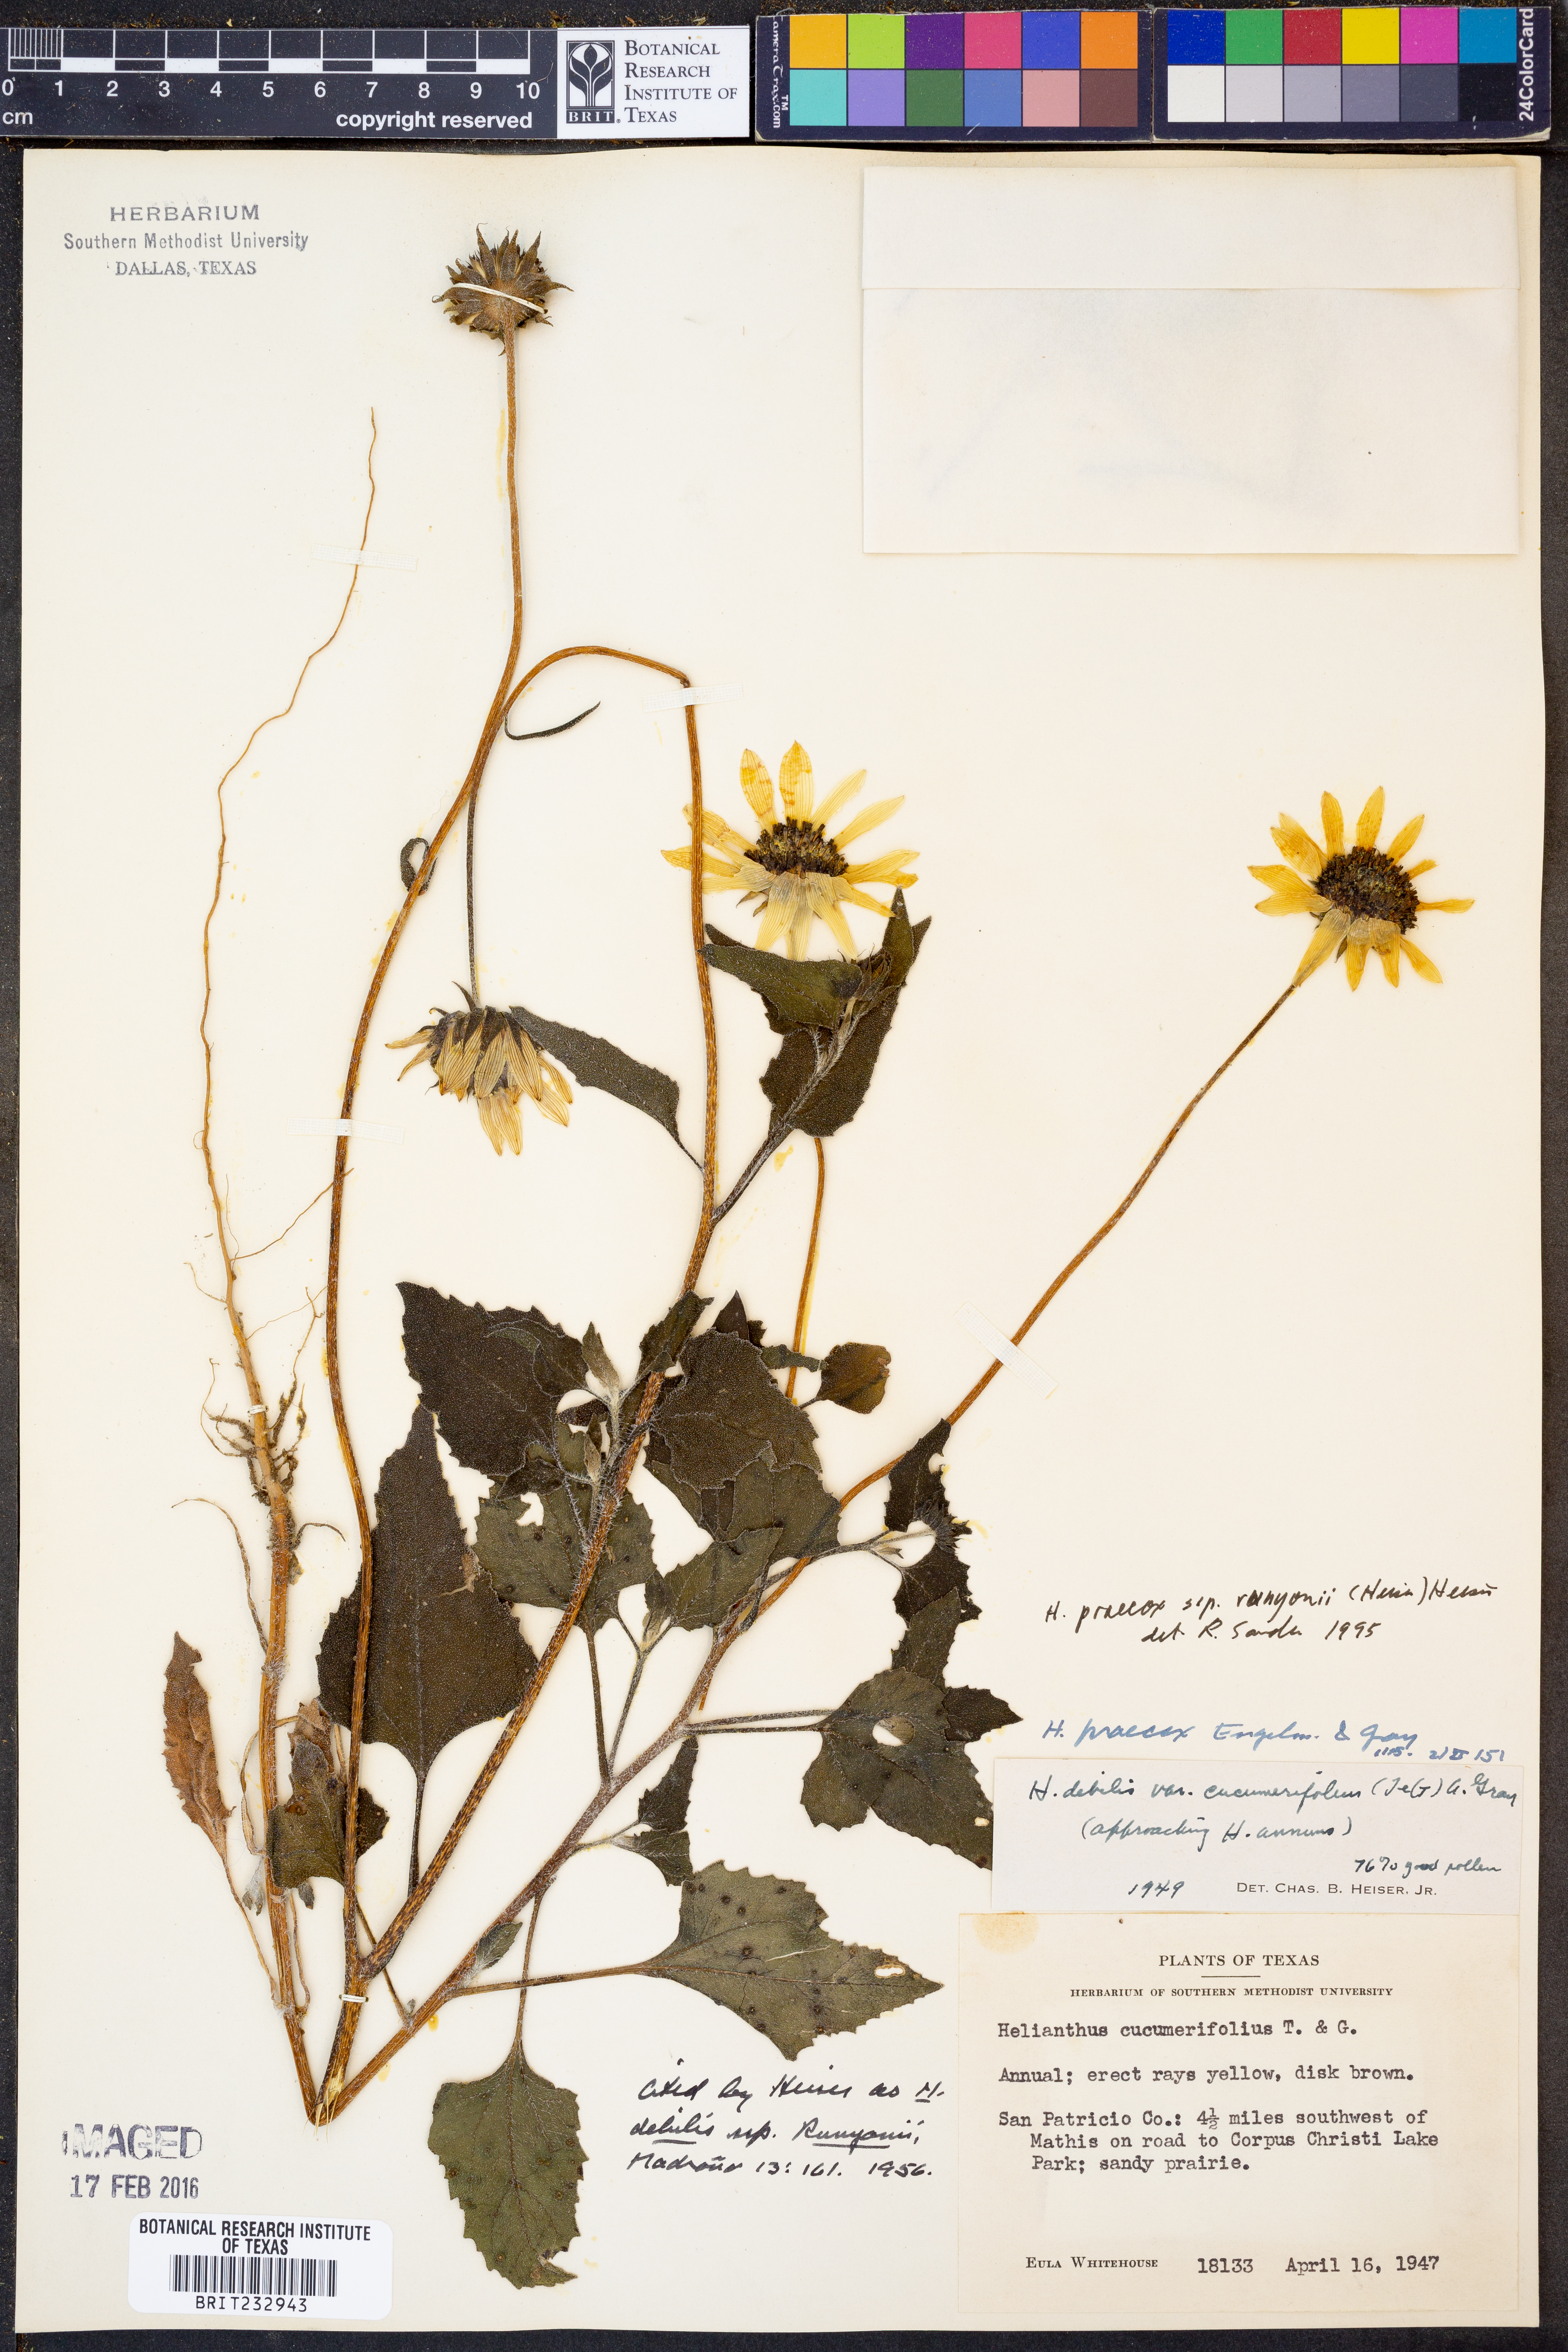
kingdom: Plantae
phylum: Tracheophyta
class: Magnoliopsida
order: Asterales
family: Asteraceae
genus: Helianthus
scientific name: Helianthus praecox
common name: Texas sunflower
